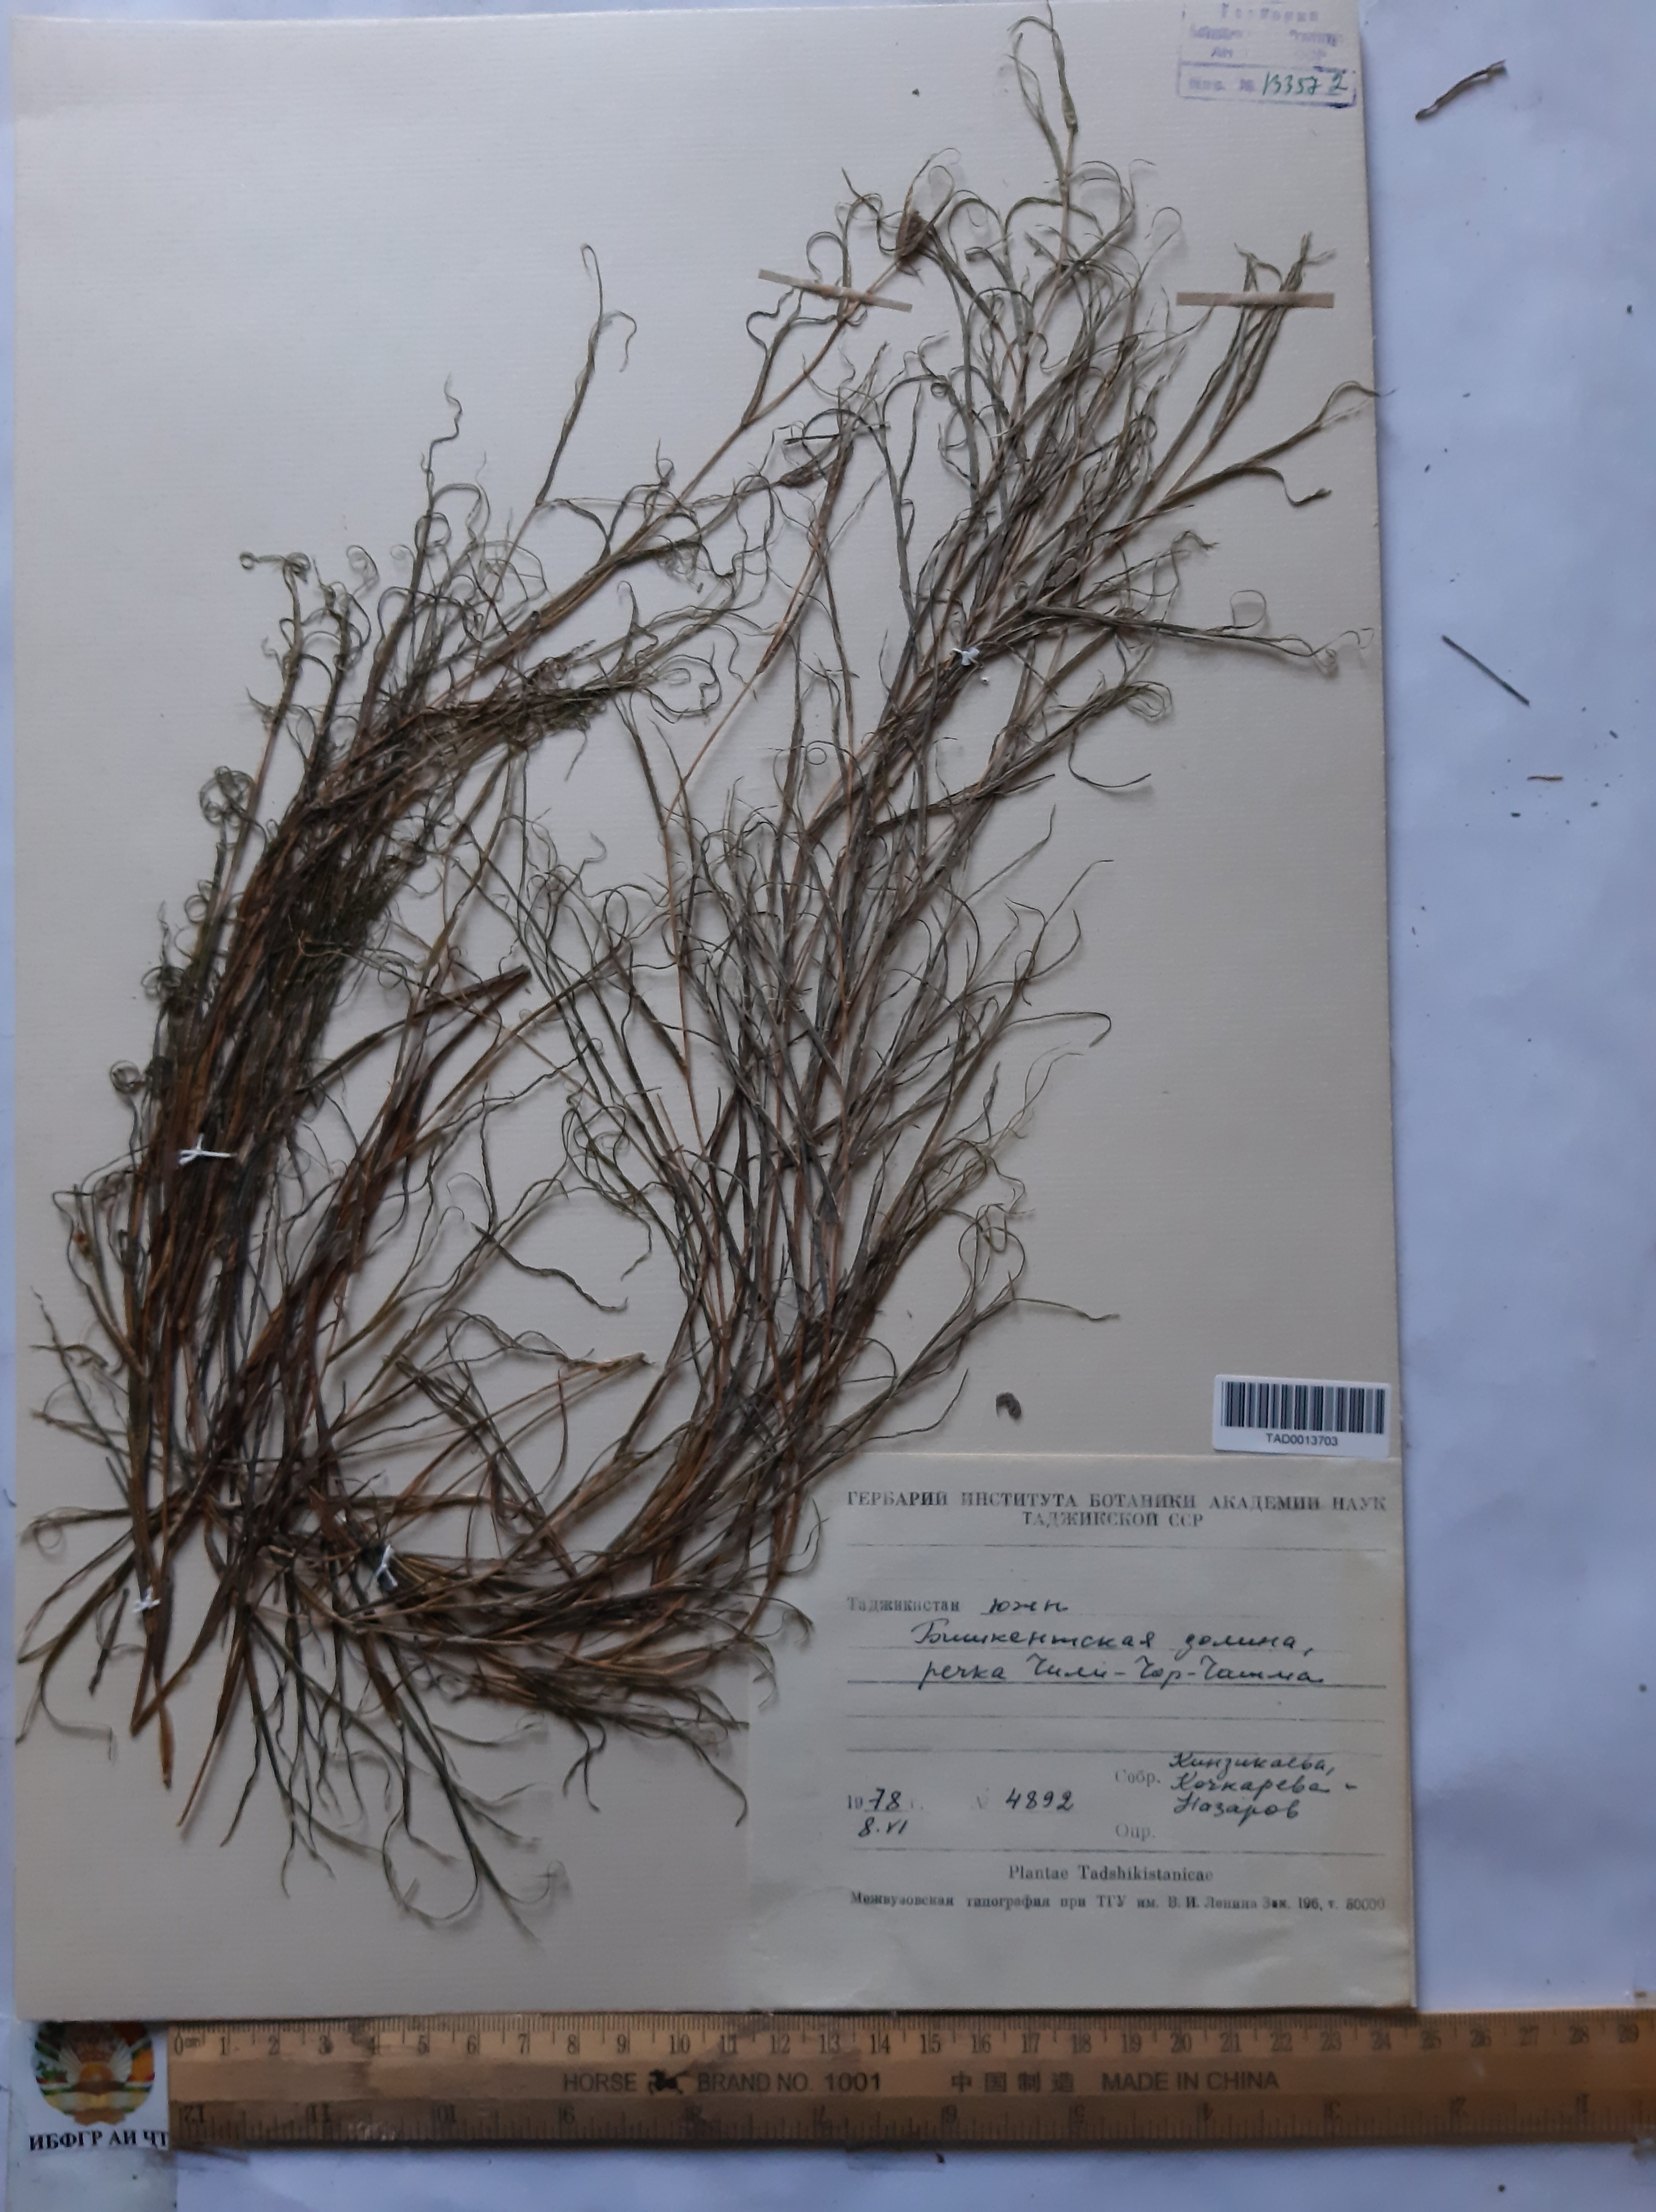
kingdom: Plantae
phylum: Tracheophyta
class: Liliopsida
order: Alismatales
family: Potamogetonaceae
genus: Potamogeton
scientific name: Potamogeton crispus
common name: Curled pondweed
